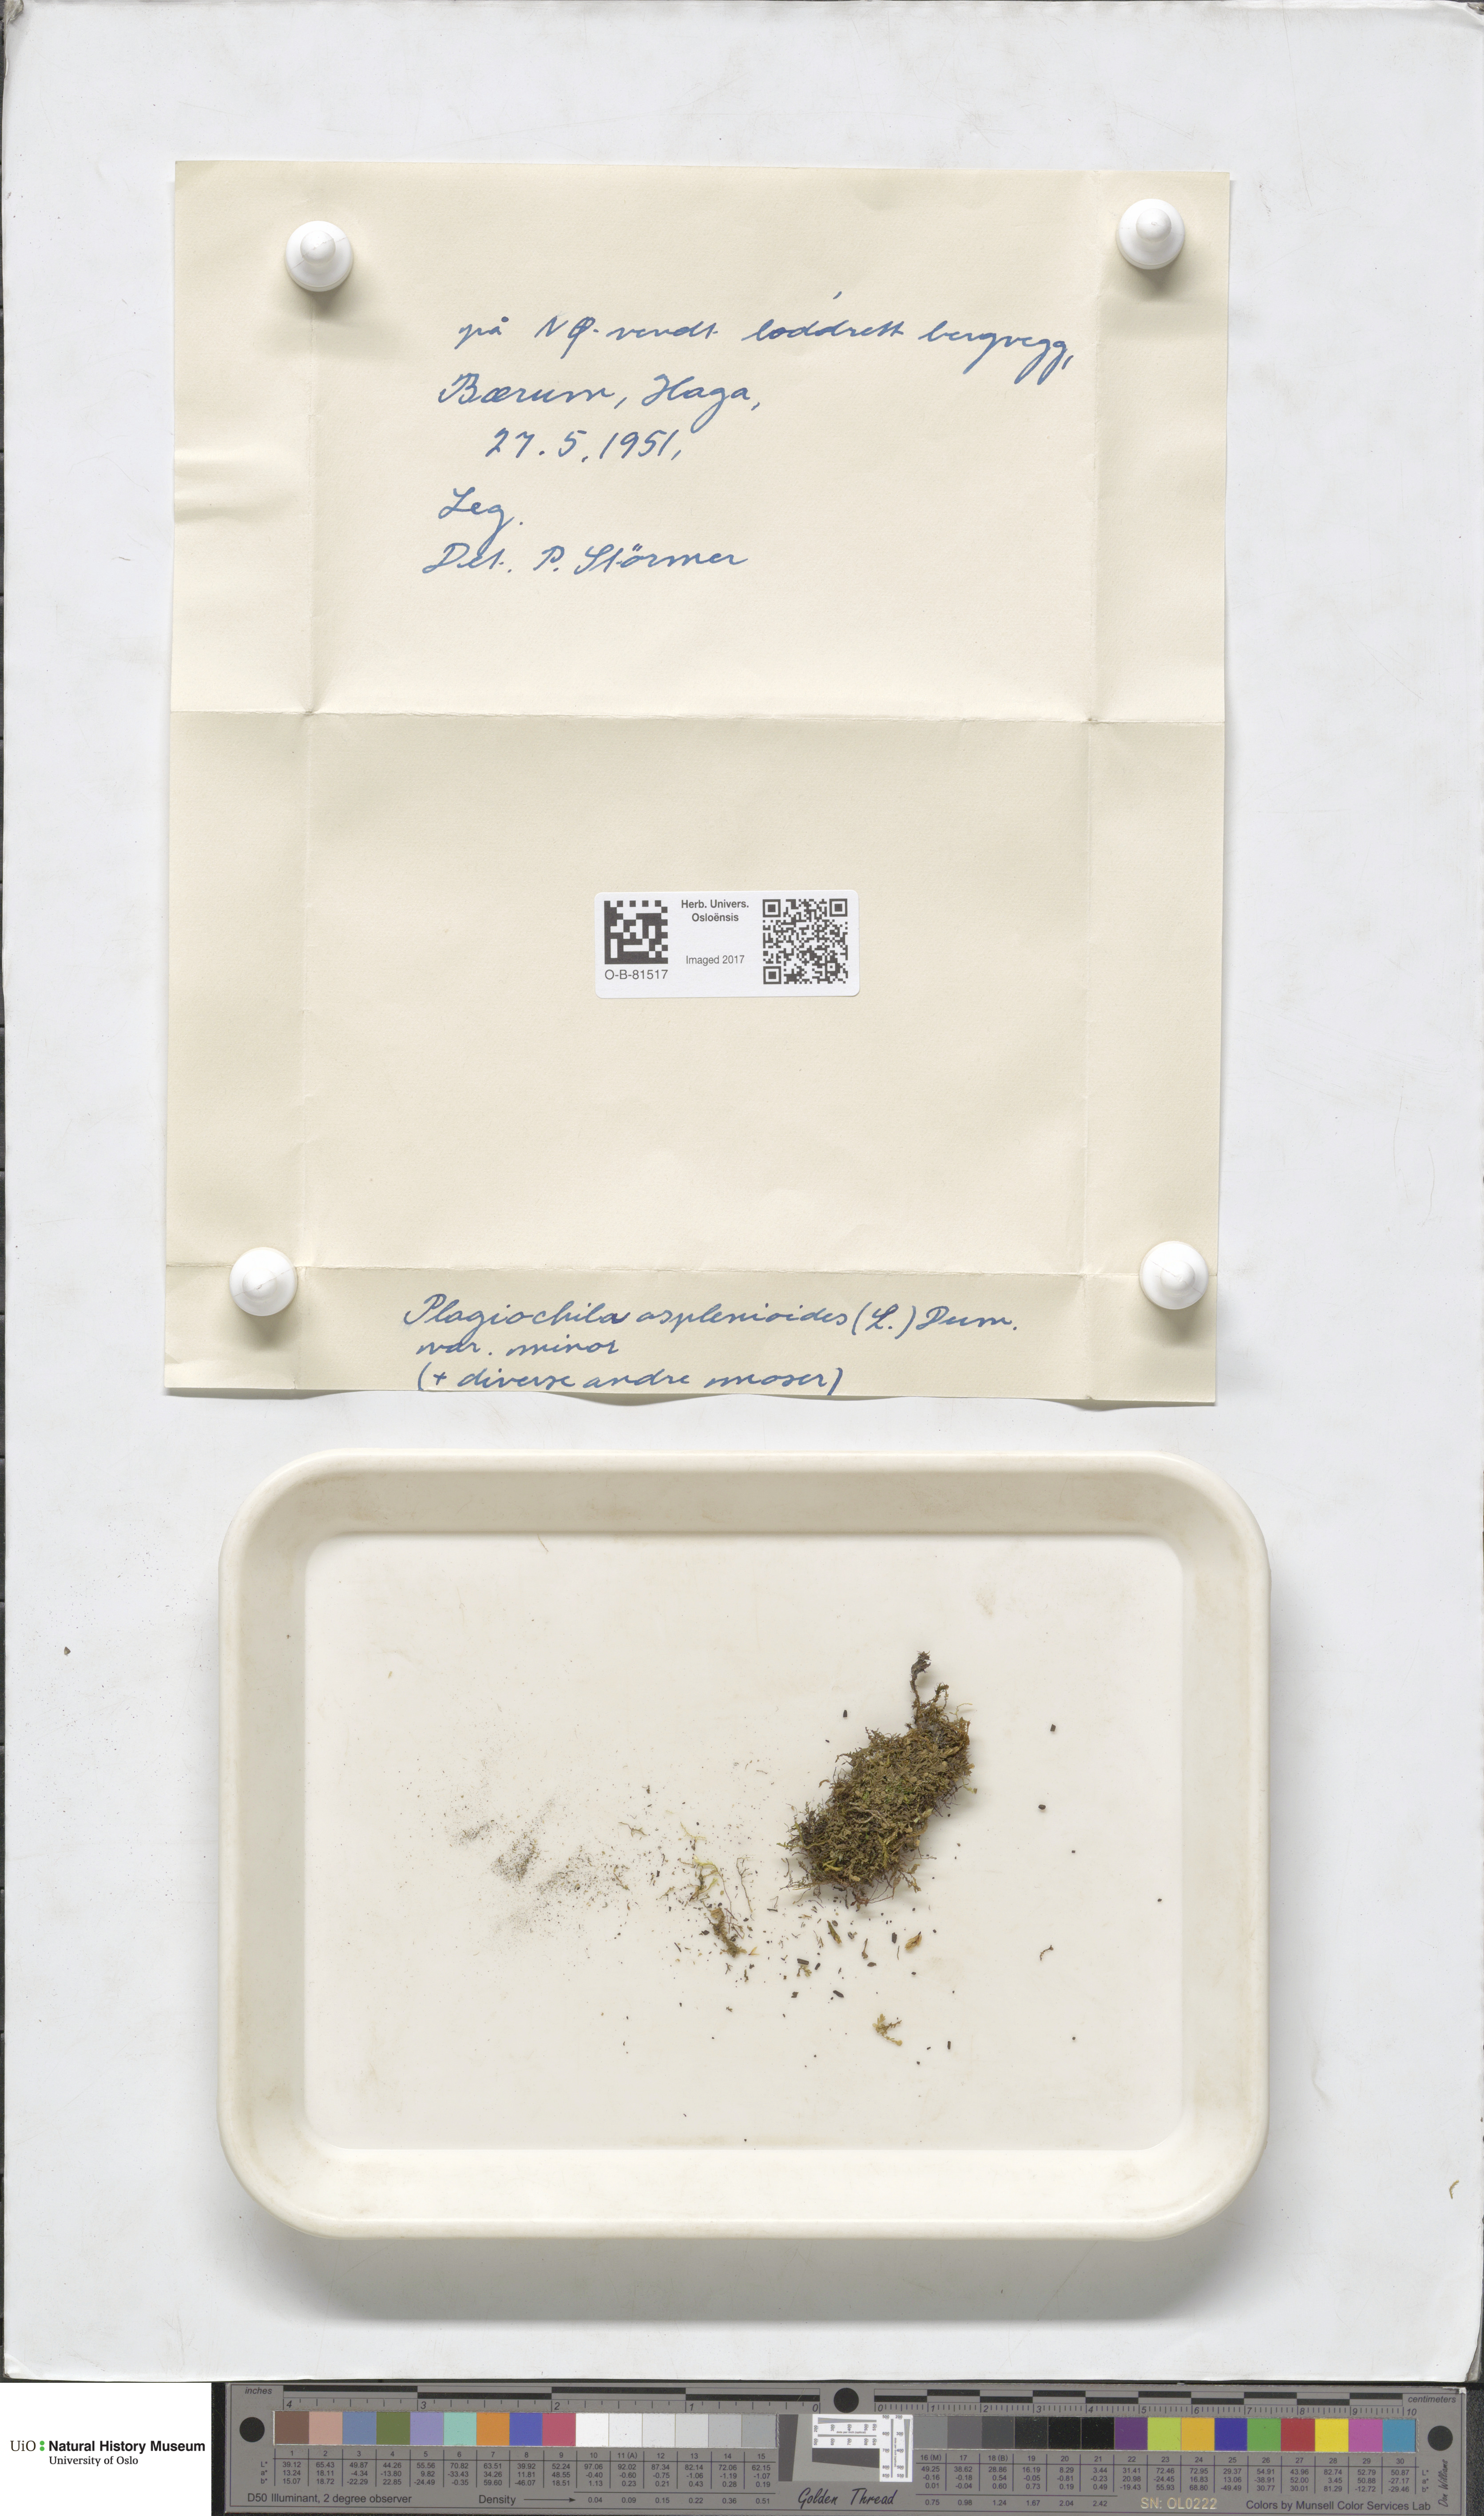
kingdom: Plantae
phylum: Marchantiophyta
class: Jungermanniopsida
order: Jungermanniales
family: Plagiochilaceae
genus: Plagiochila
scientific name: Plagiochila asplenioides
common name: Greater featherwort
